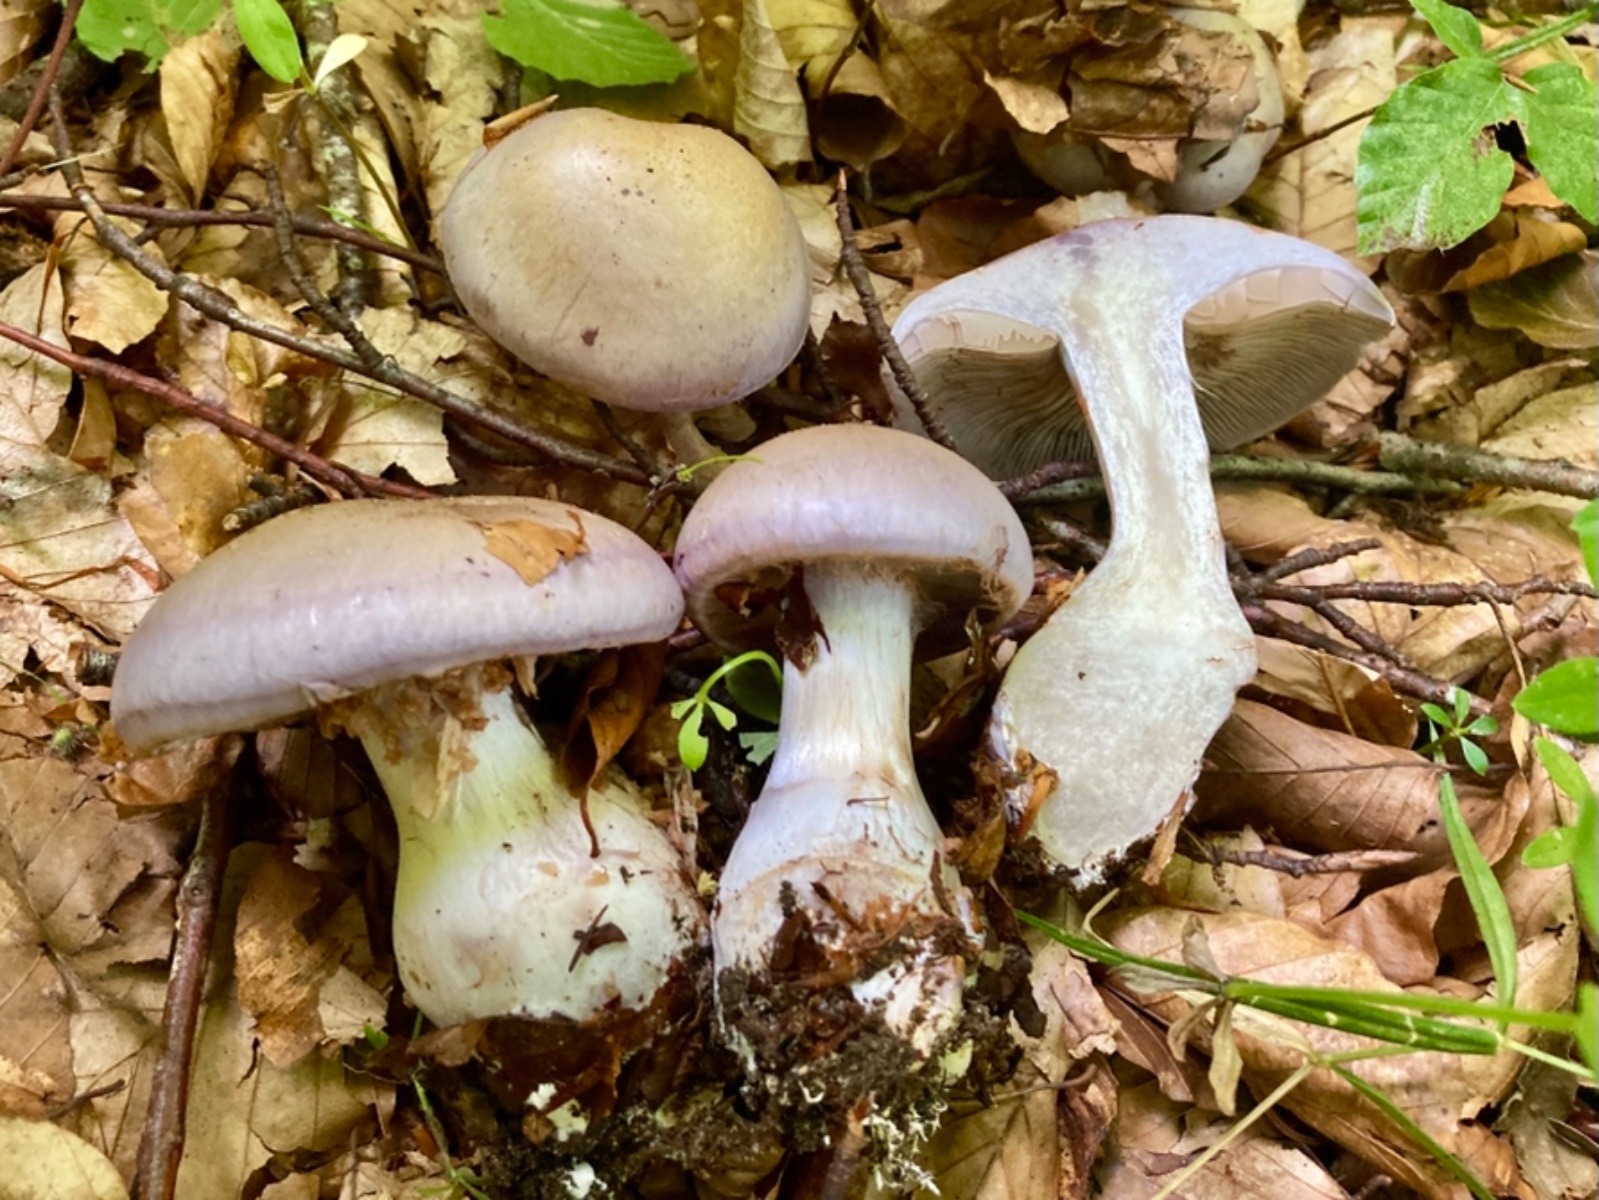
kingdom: Fungi
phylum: Basidiomycota
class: Agaricomycetes
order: Agaricales
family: Cortinariaceae
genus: Cortinarius
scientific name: Cortinarius largus
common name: violetrandet slørhat
